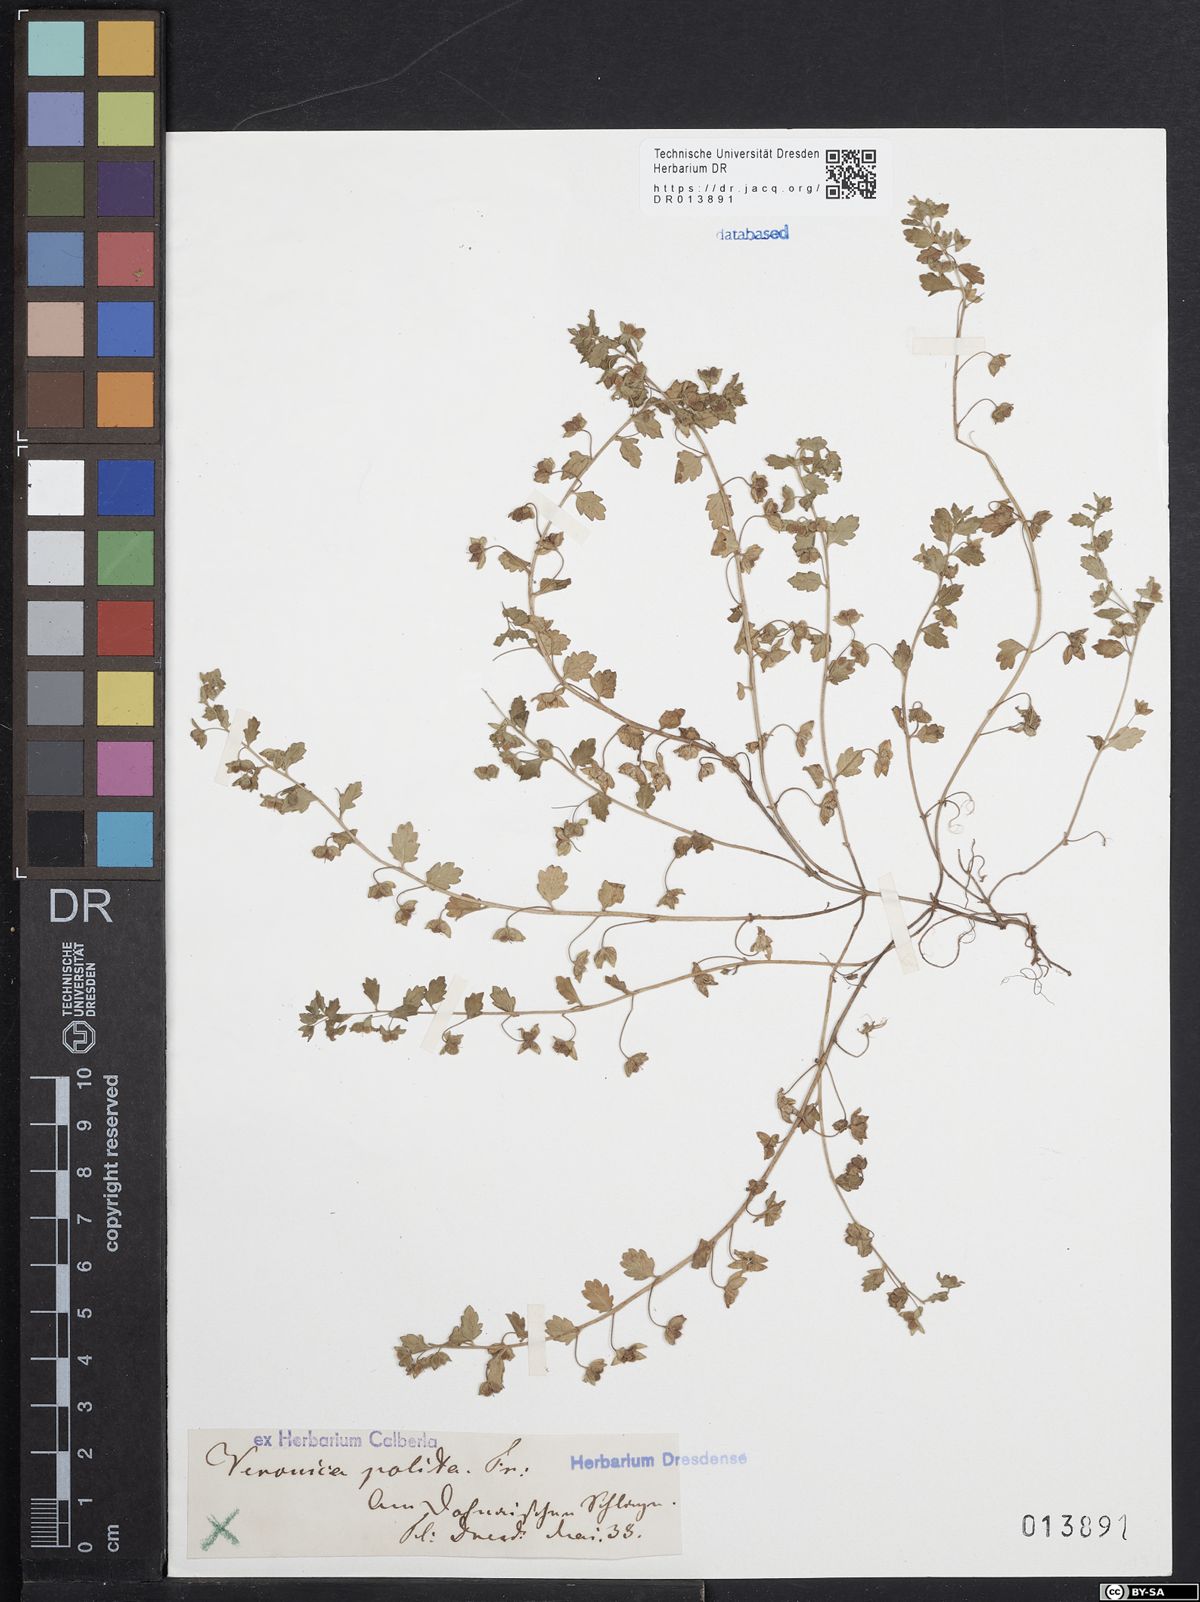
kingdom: Plantae
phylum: Tracheophyta
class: Magnoliopsida
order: Lamiales
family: Plantaginaceae
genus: Veronica
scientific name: Veronica polita
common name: Grey field-speedwell
